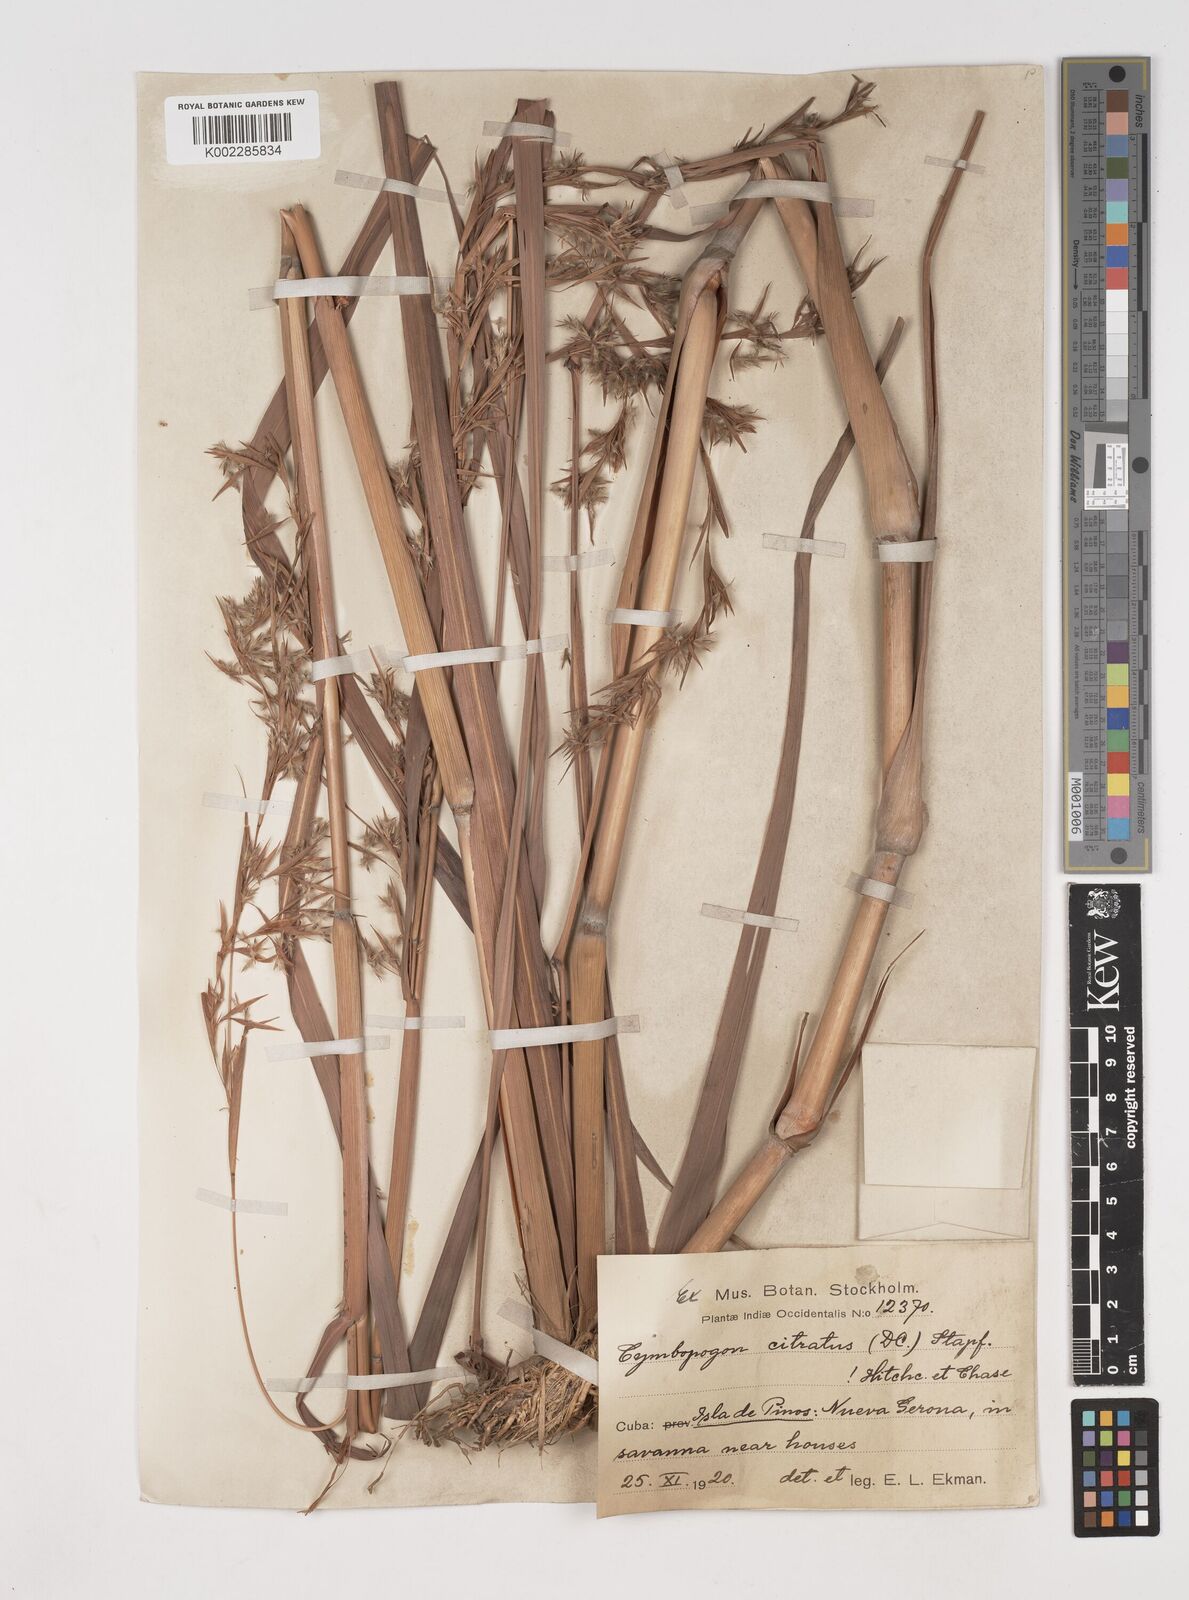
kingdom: Plantae
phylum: Tracheophyta
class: Liliopsida
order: Poales
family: Poaceae
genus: Cymbopogon
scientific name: Cymbopogon citratus
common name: Lemon grass
